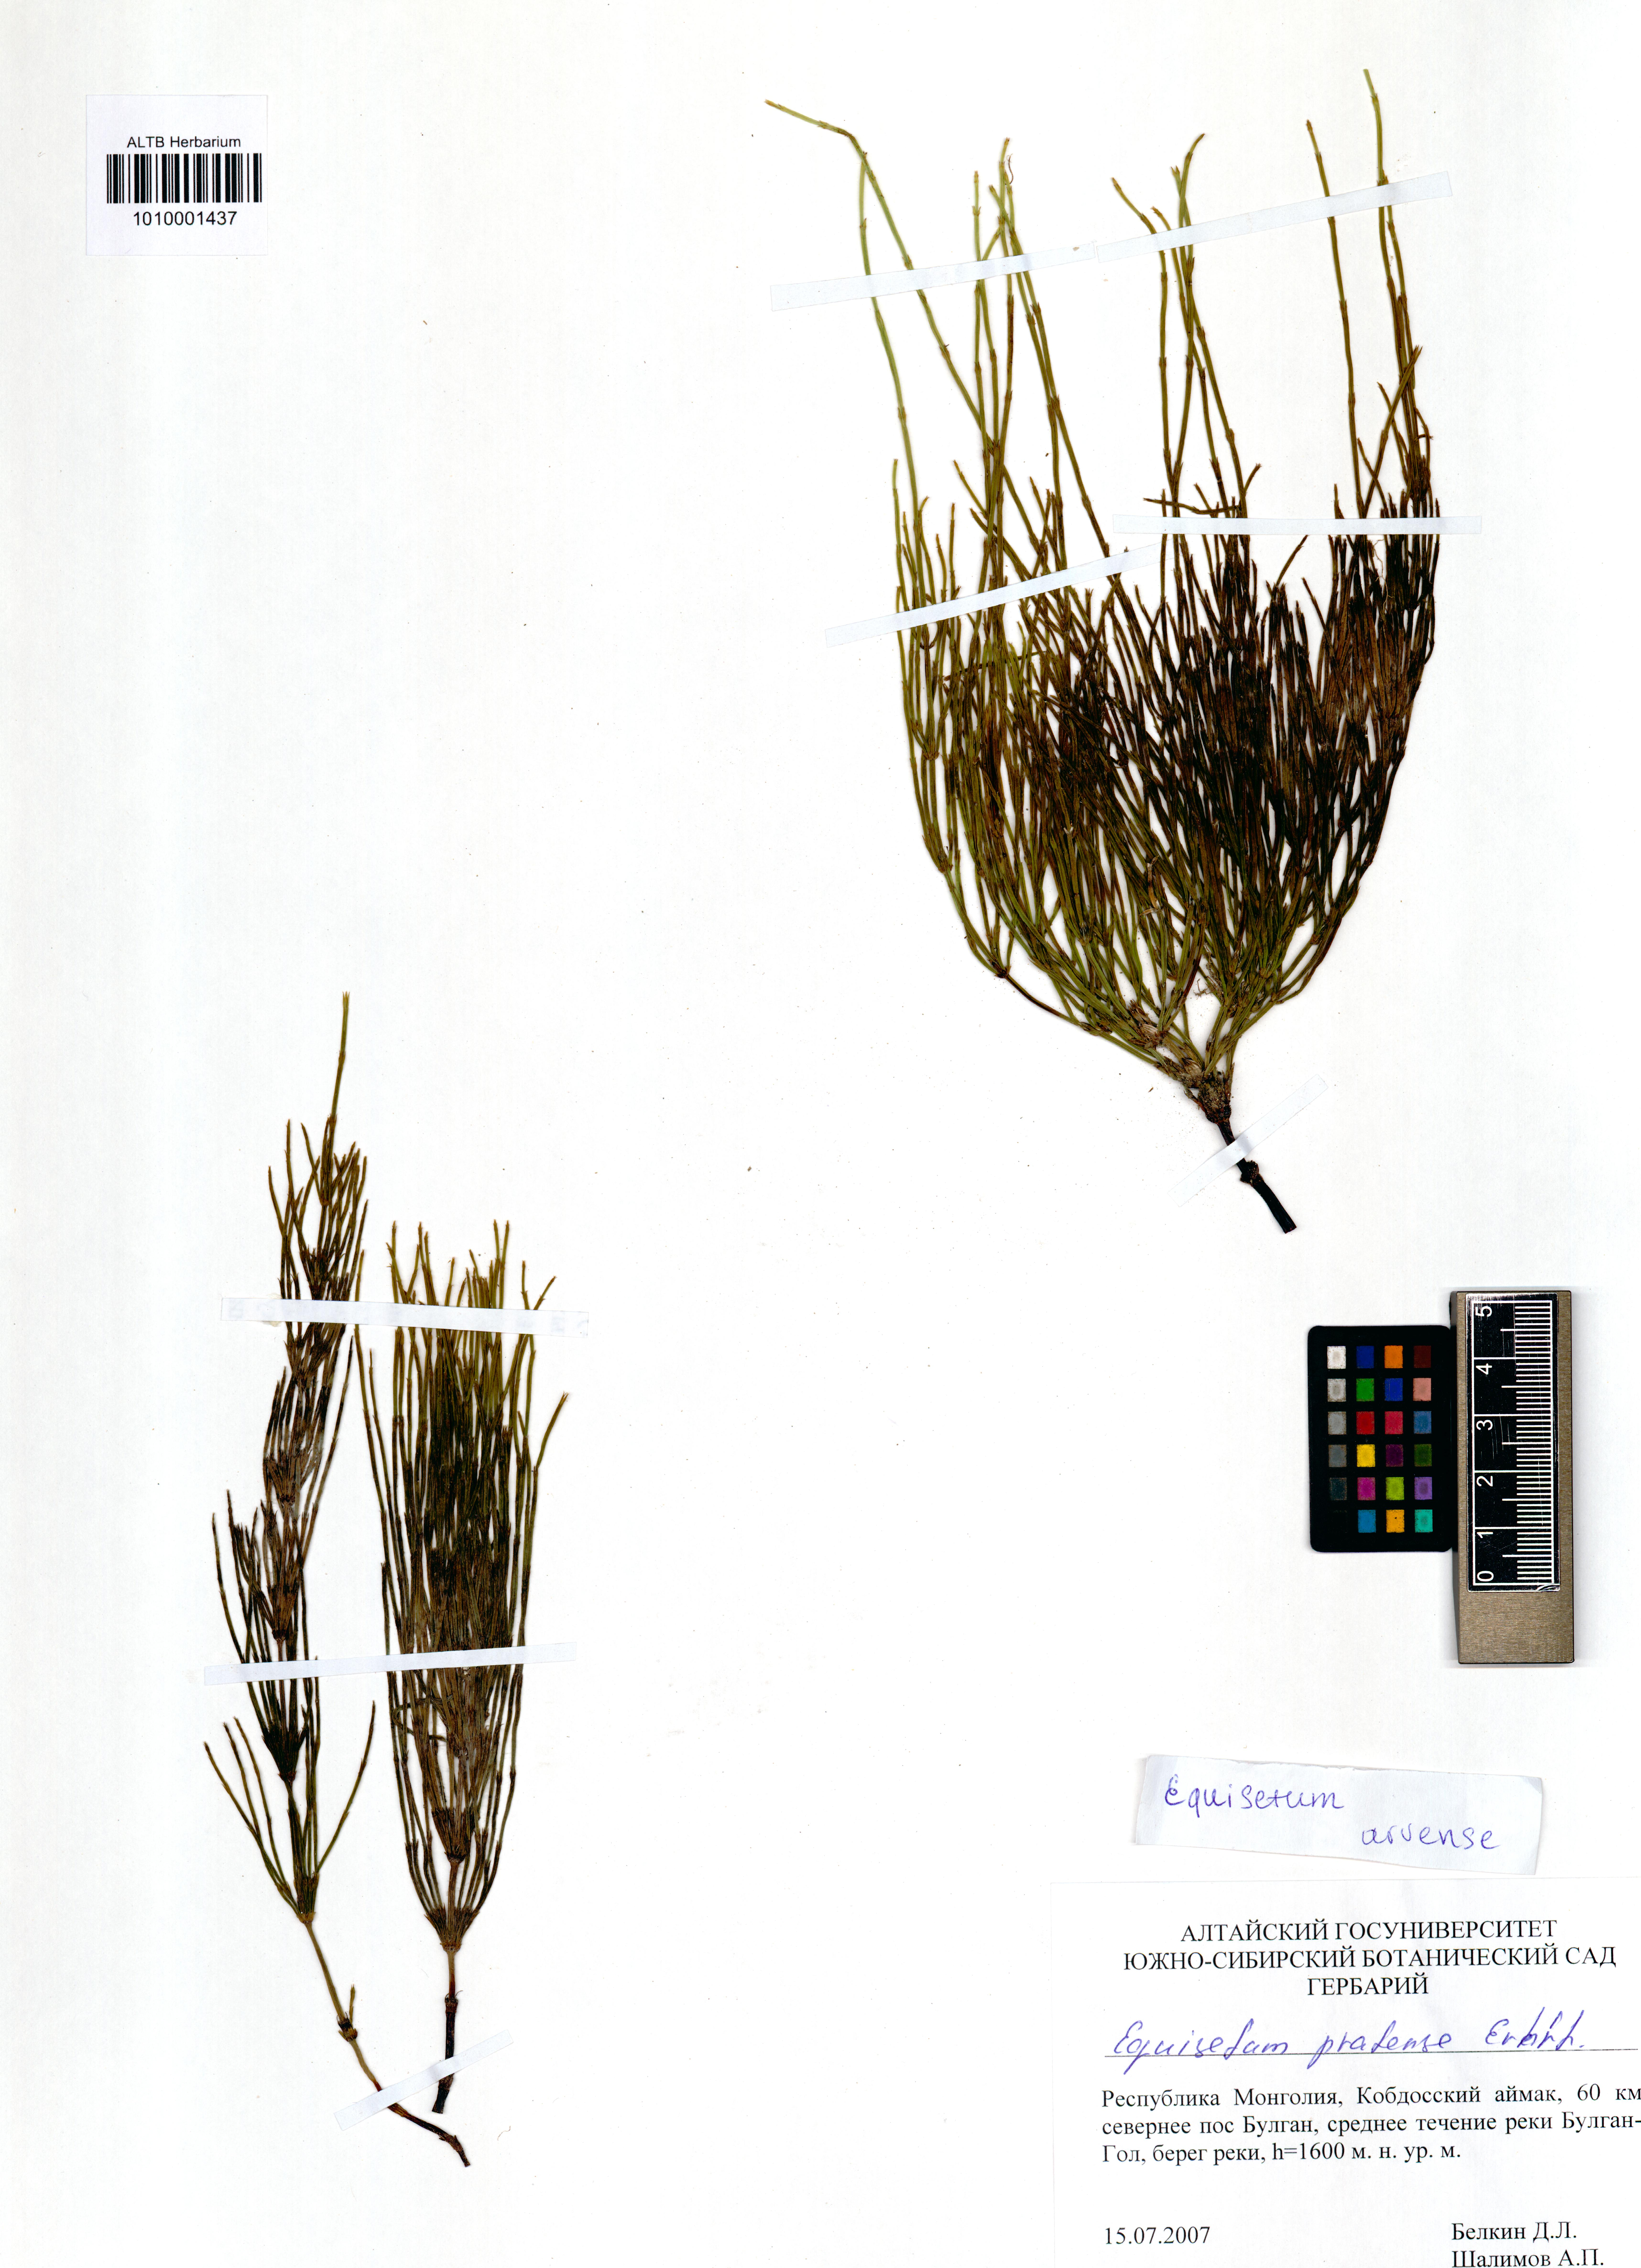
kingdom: Plantae
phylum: Tracheophyta
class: Polypodiopsida
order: Equisetales
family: Equisetaceae
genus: Equisetum
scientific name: Equisetum arvense
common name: Field horsetail
